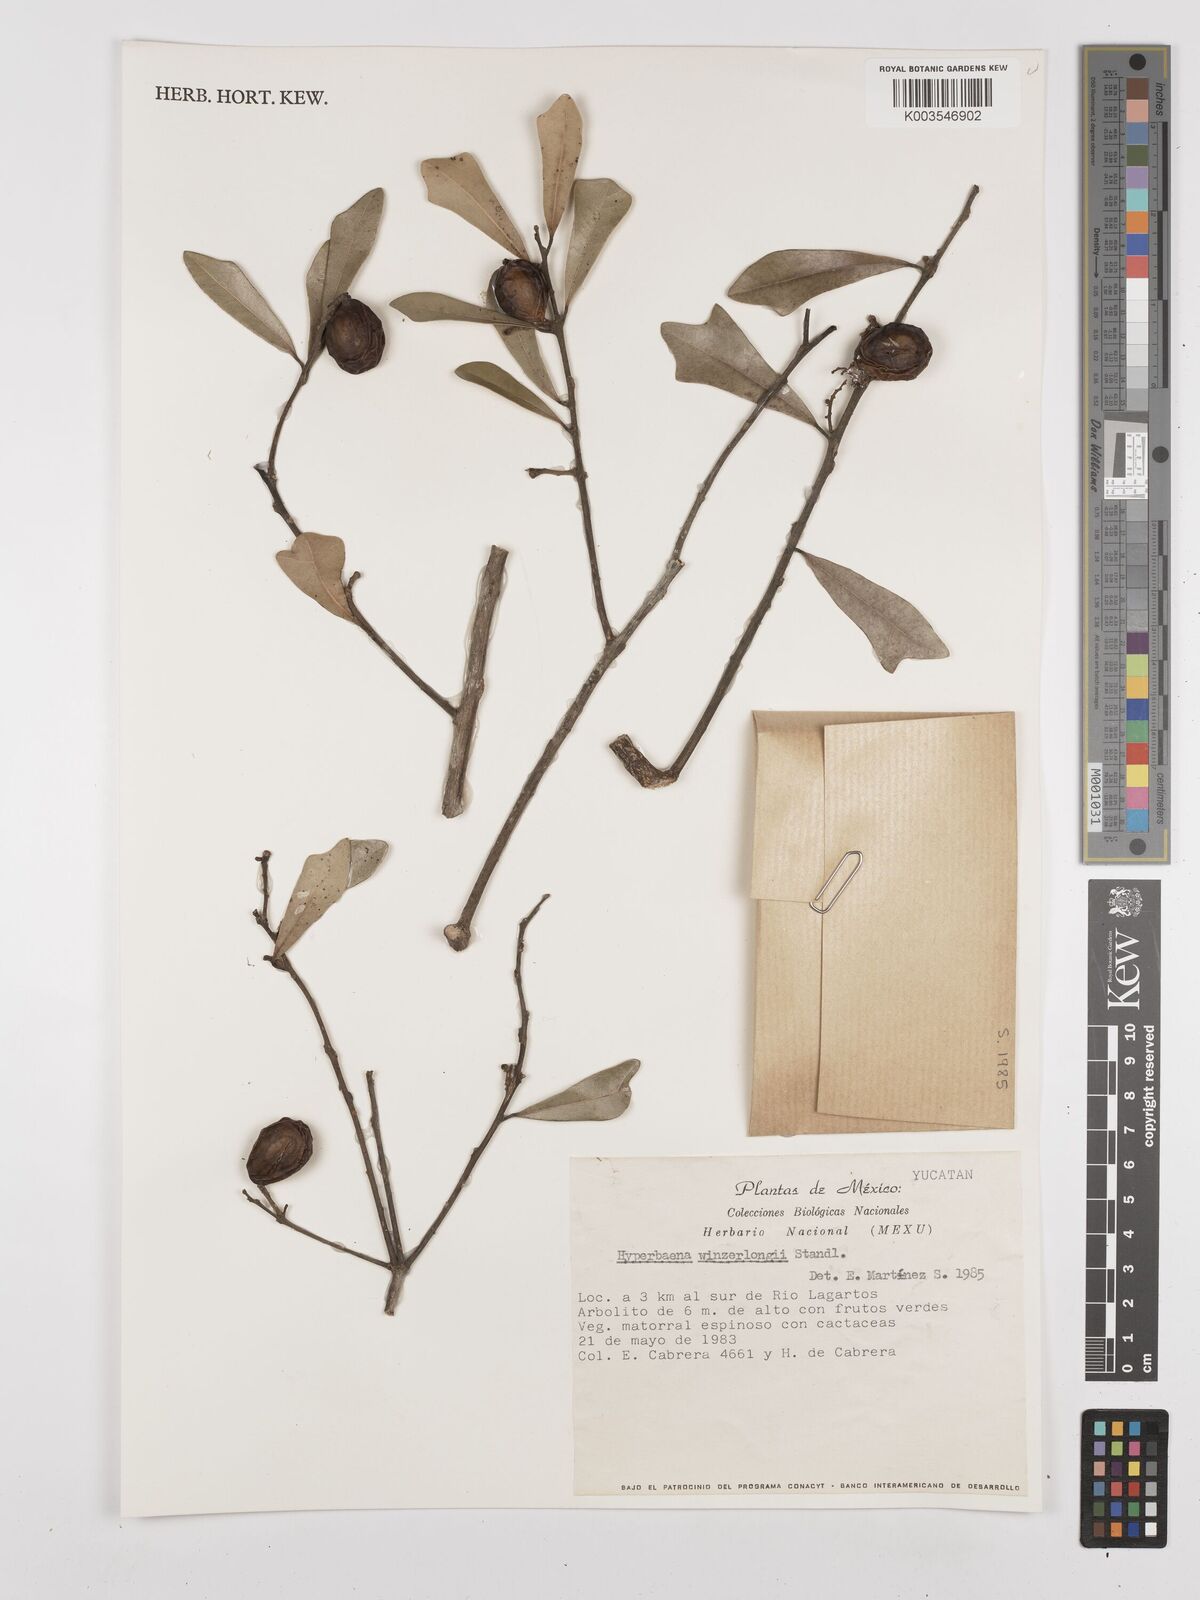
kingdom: Plantae
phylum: Tracheophyta
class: Magnoliopsida
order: Ranunculales
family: Menispermaceae
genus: Hyperbaena
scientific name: Hyperbaena winzerlingii
